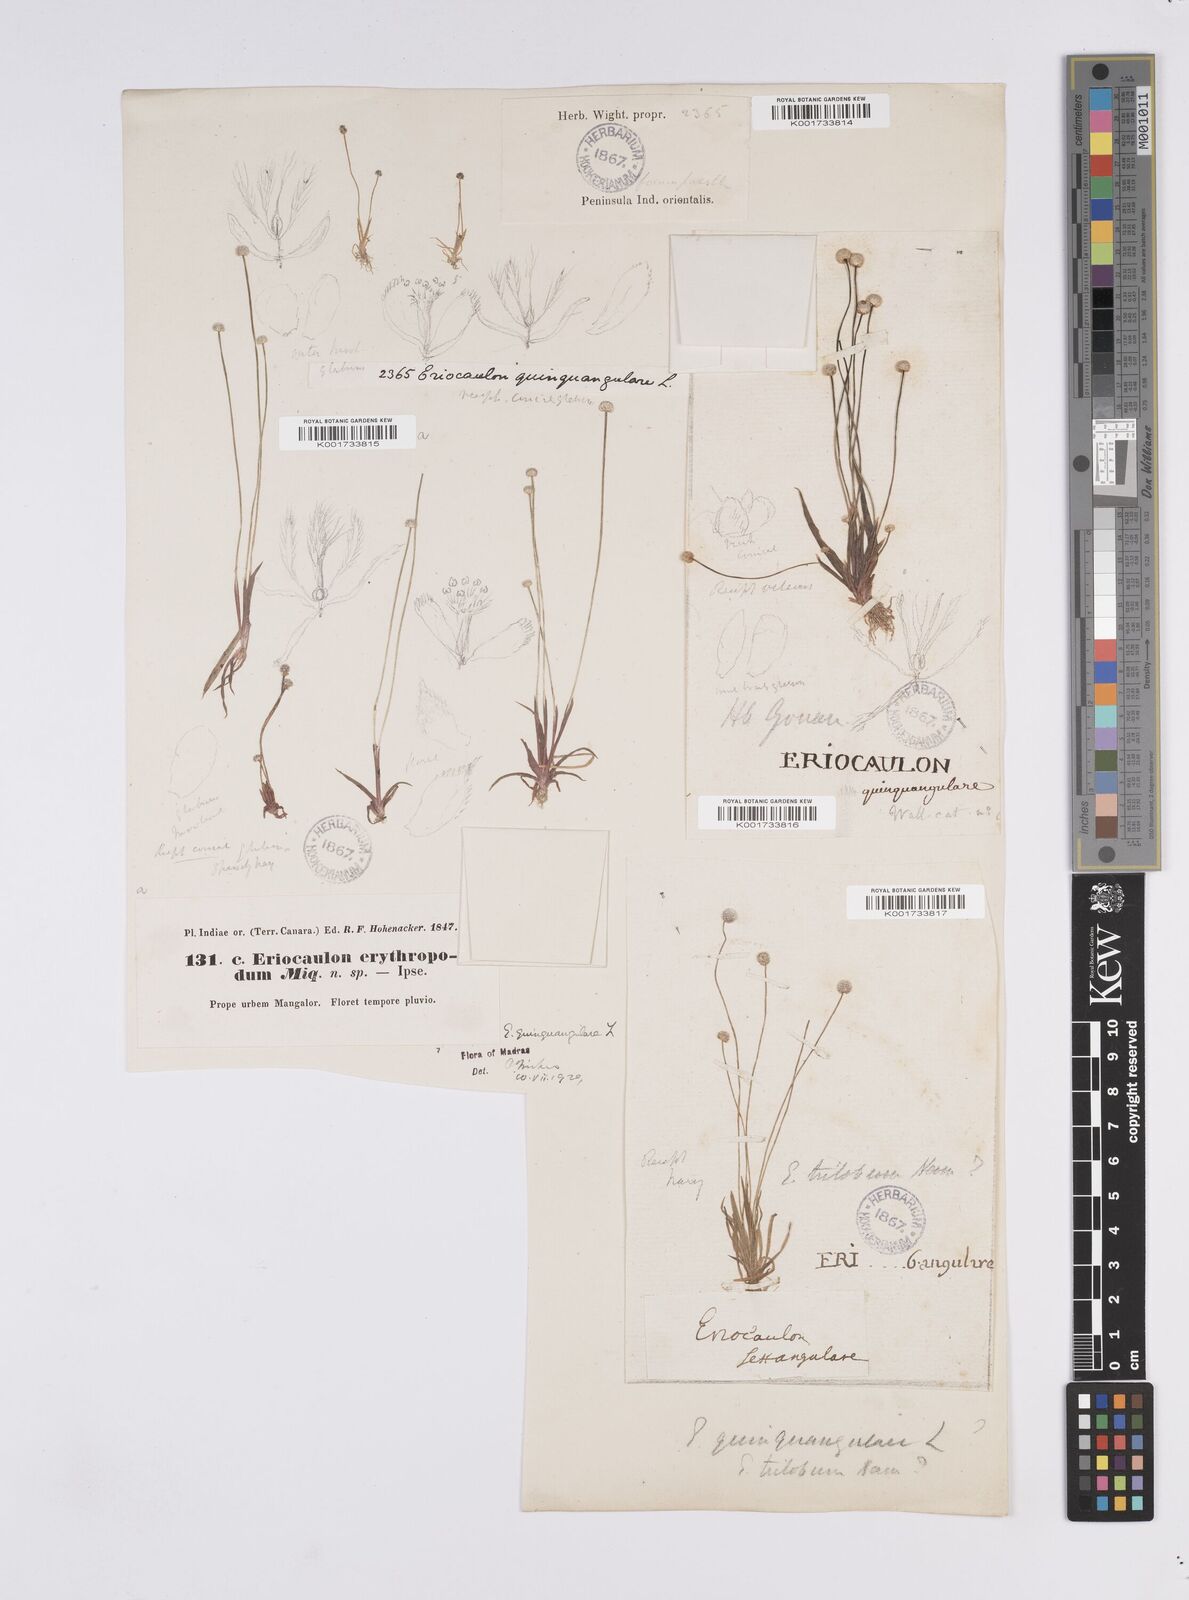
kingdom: Plantae
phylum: Tracheophyta
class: Liliopsida
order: Poales
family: Eriocaulaceae
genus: Eriocaulon
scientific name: Eriocaulon quinquangulare
